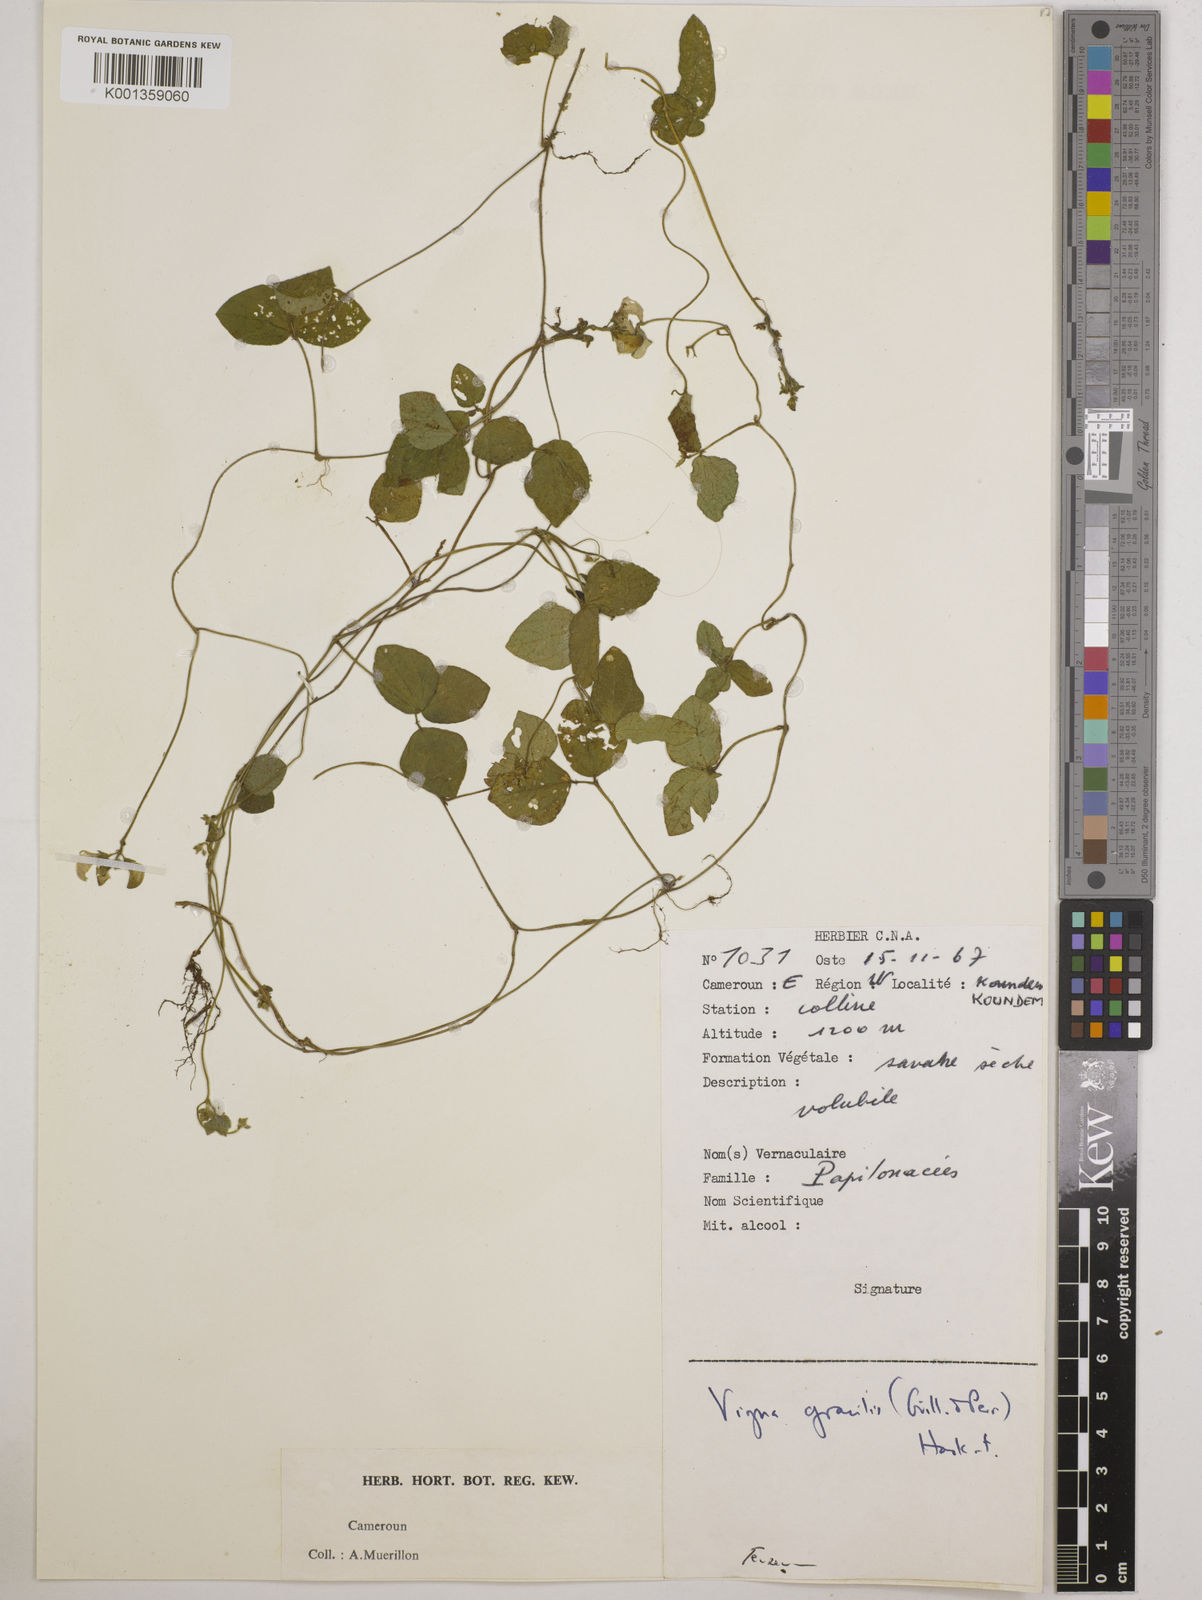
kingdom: Plantae
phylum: Tracheophyta
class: Magnoliopsida
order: Fabales
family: Fabaceae
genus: Vigna
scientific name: Vigna gracilis
